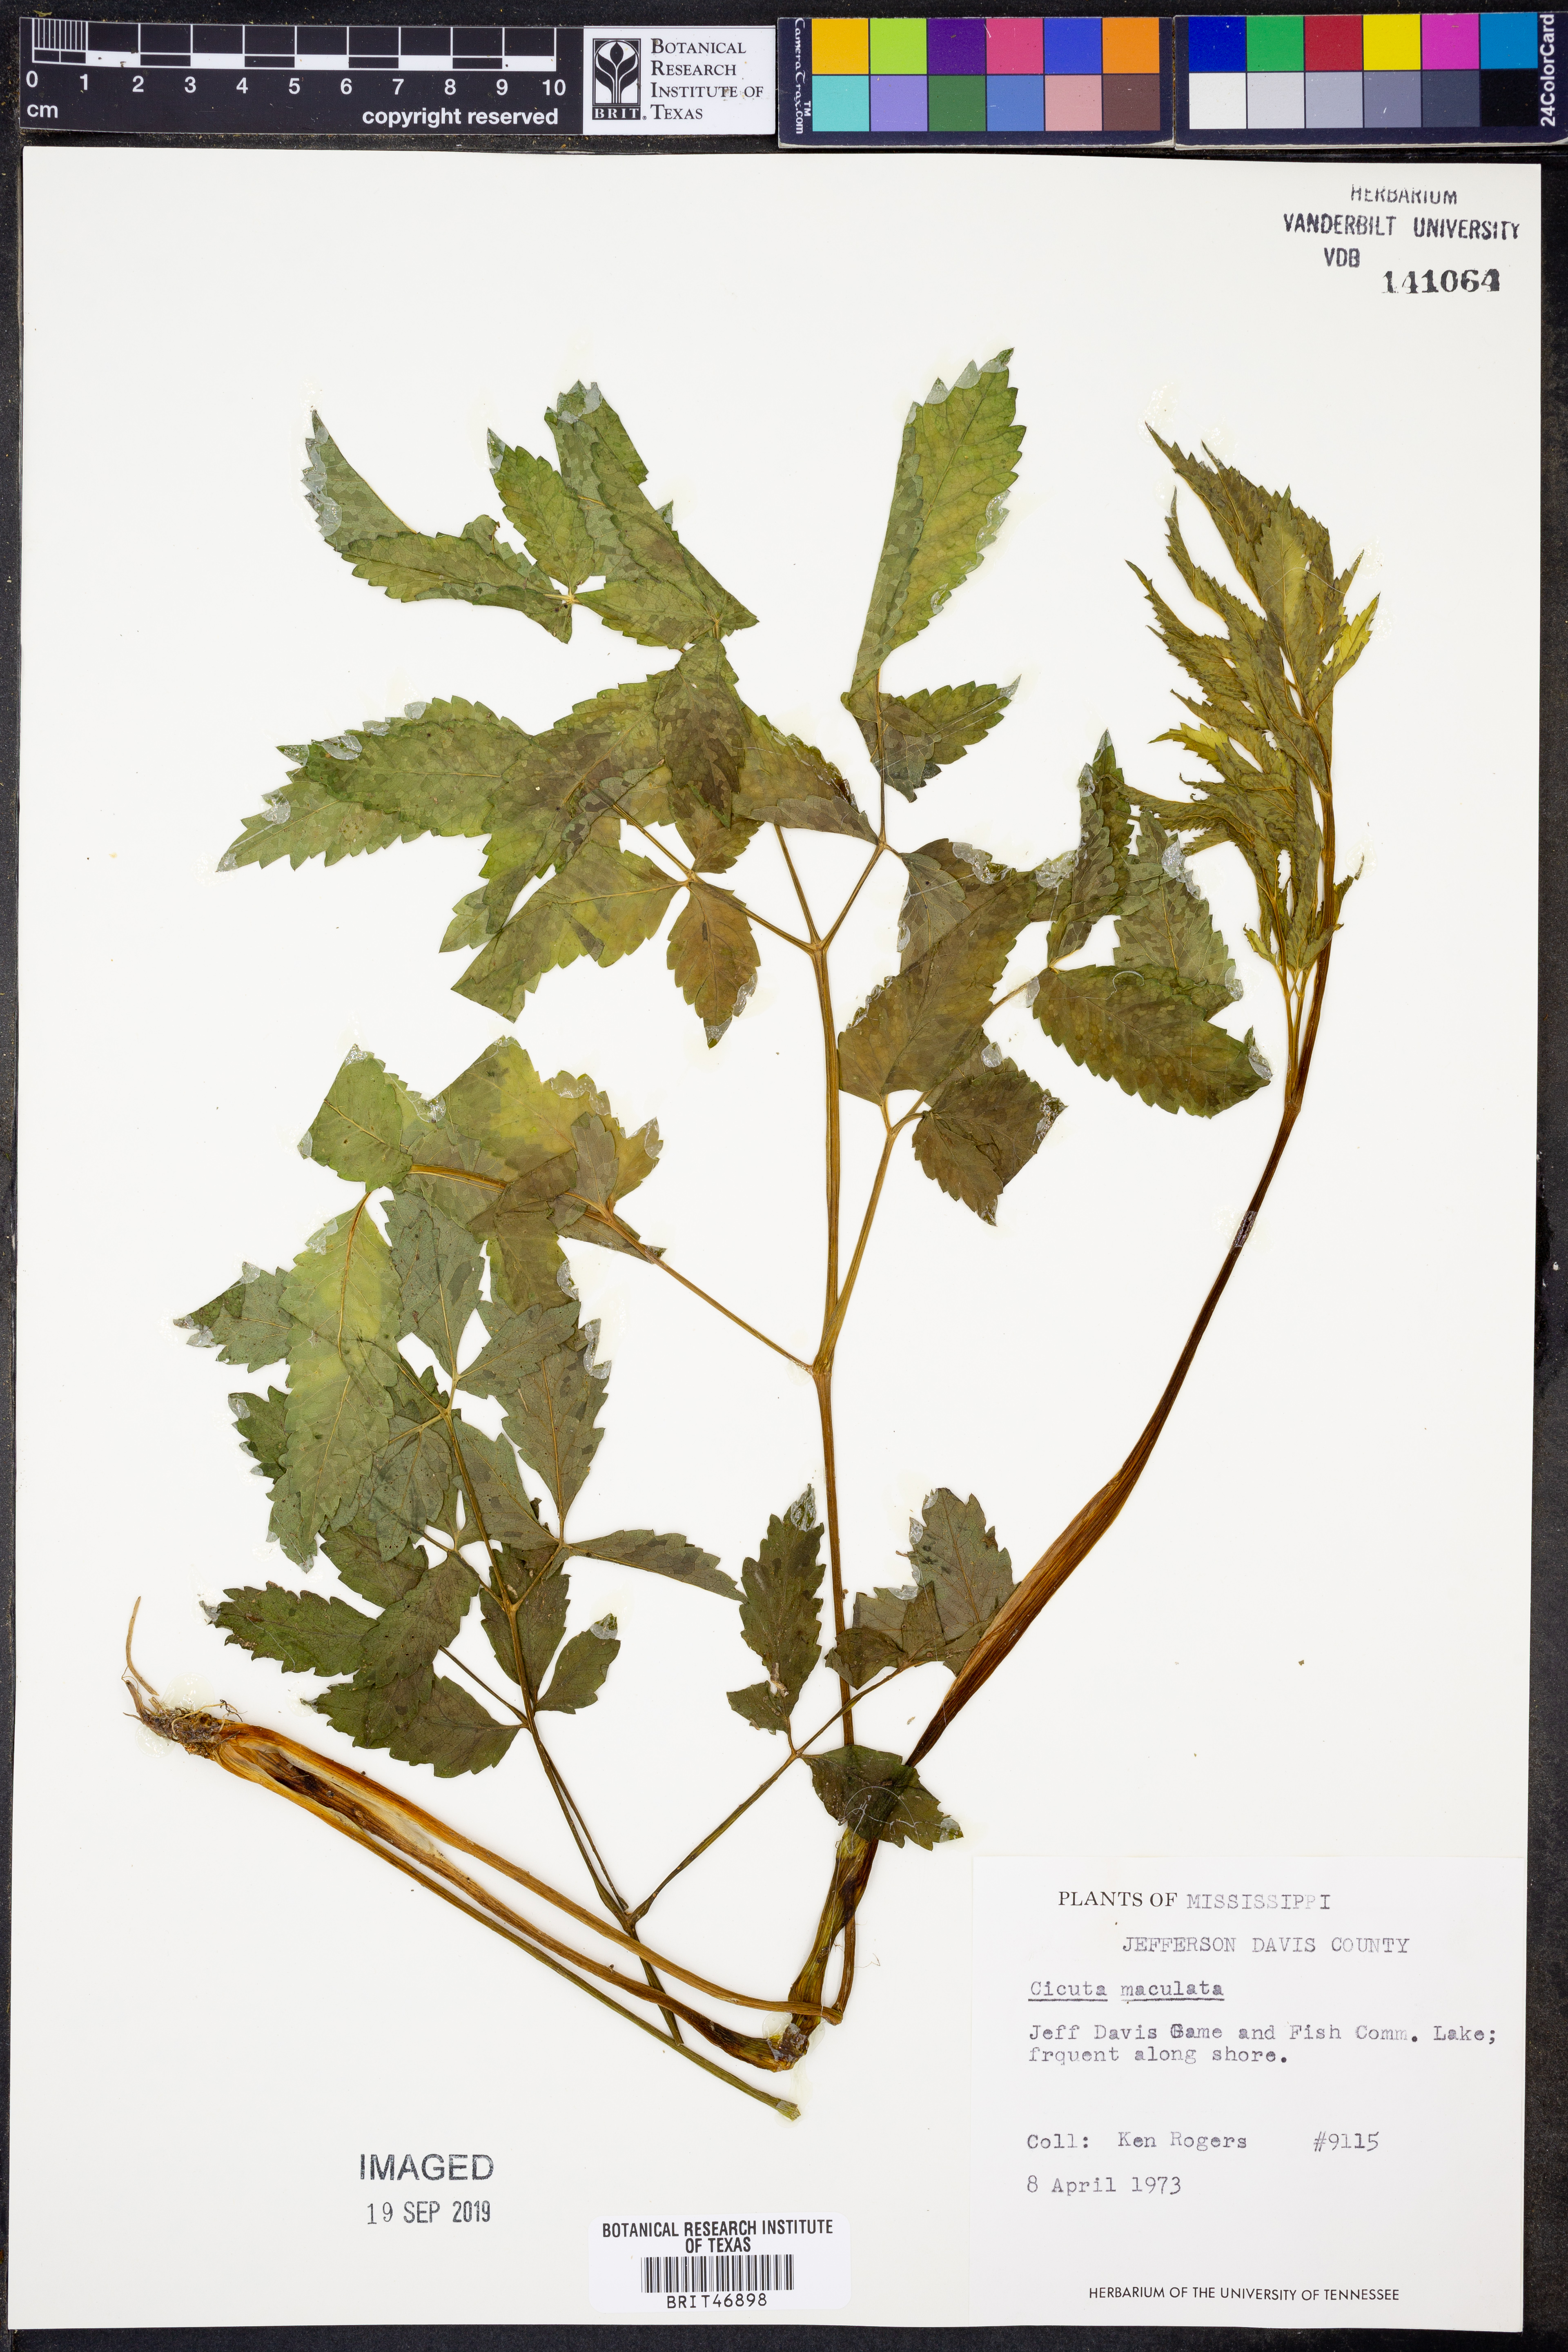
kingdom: Plantae
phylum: Tracheophyta
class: Magnoliopsida
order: Apiales
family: Apiaceae
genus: Cicuta
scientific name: Cicuta maculata
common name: Spotted cowbane
